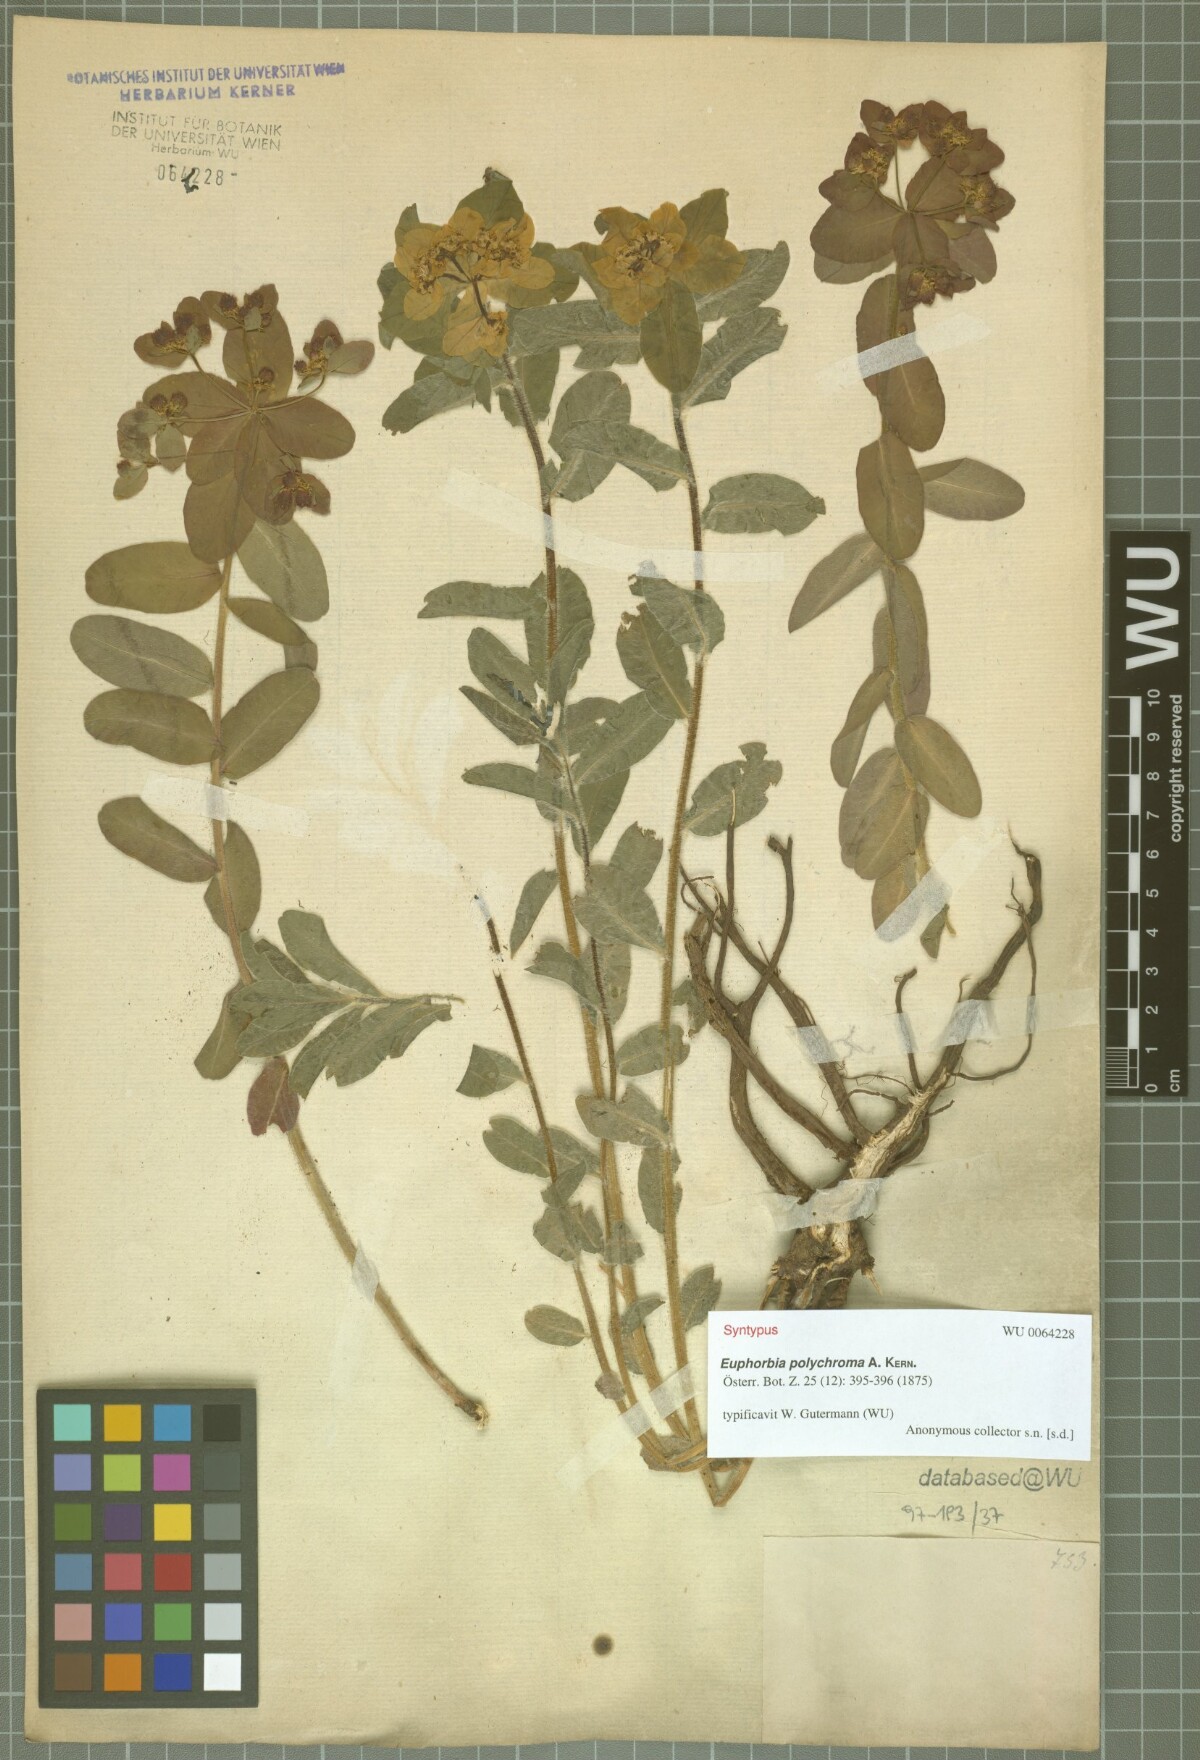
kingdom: Plantae
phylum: Tracheophyta
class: Magnoliopsida
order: Malpighiales
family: Euphorbiaceae
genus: Euphorbia
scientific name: Euphorbia epithymoides
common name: Cushion spurge
